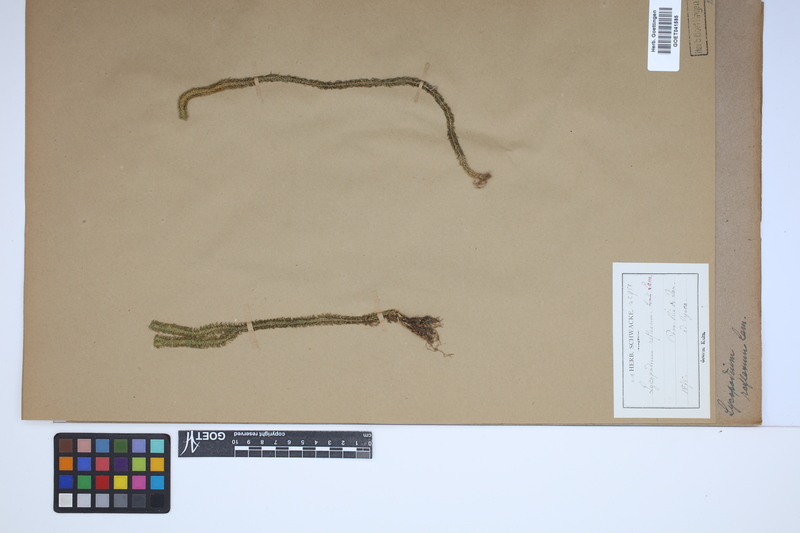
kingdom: Plantae
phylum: Tracheophyta
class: Lycopodiopsida
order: Lycopodiales
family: Lycopodiaceae
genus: Huperzia
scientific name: Huperzia lucidula
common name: Shining clubmoss
